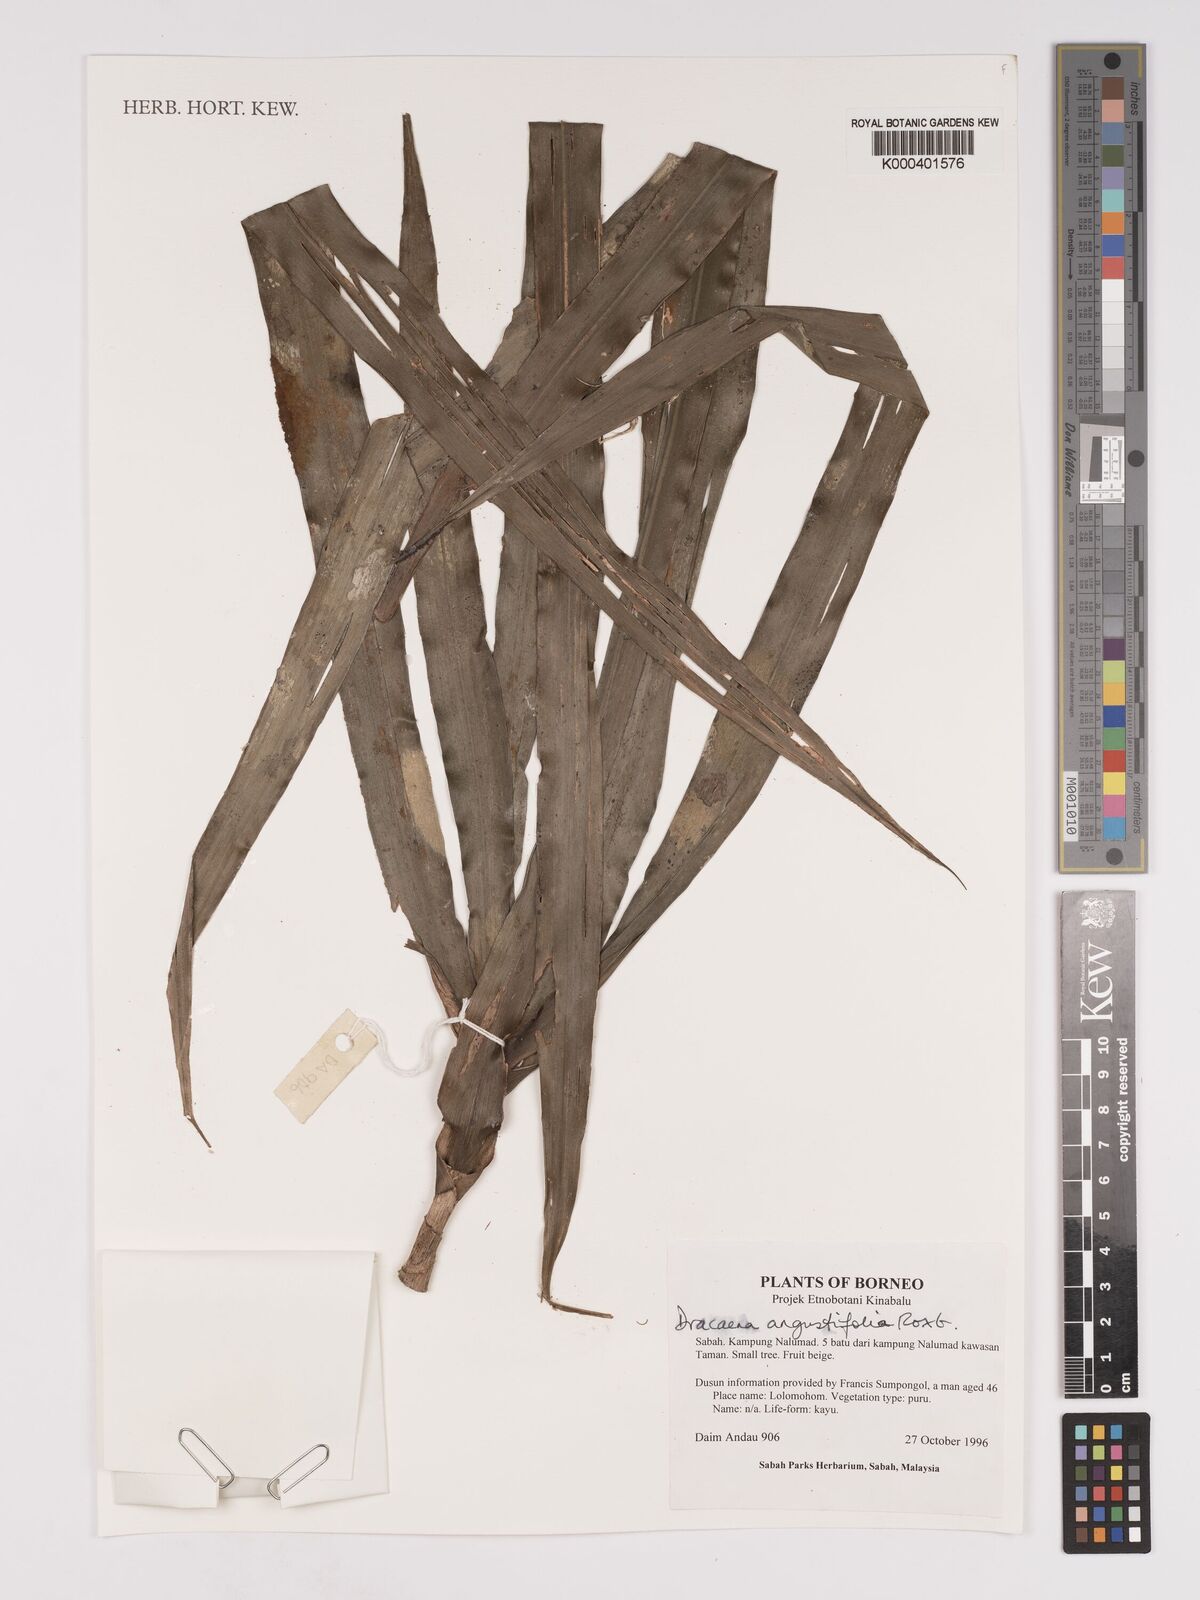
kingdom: Plantae
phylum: Tracheophyta
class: Liliopsida
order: Asparagales
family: Asparagaceae
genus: Dracaena
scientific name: Dracaena angustifolia
